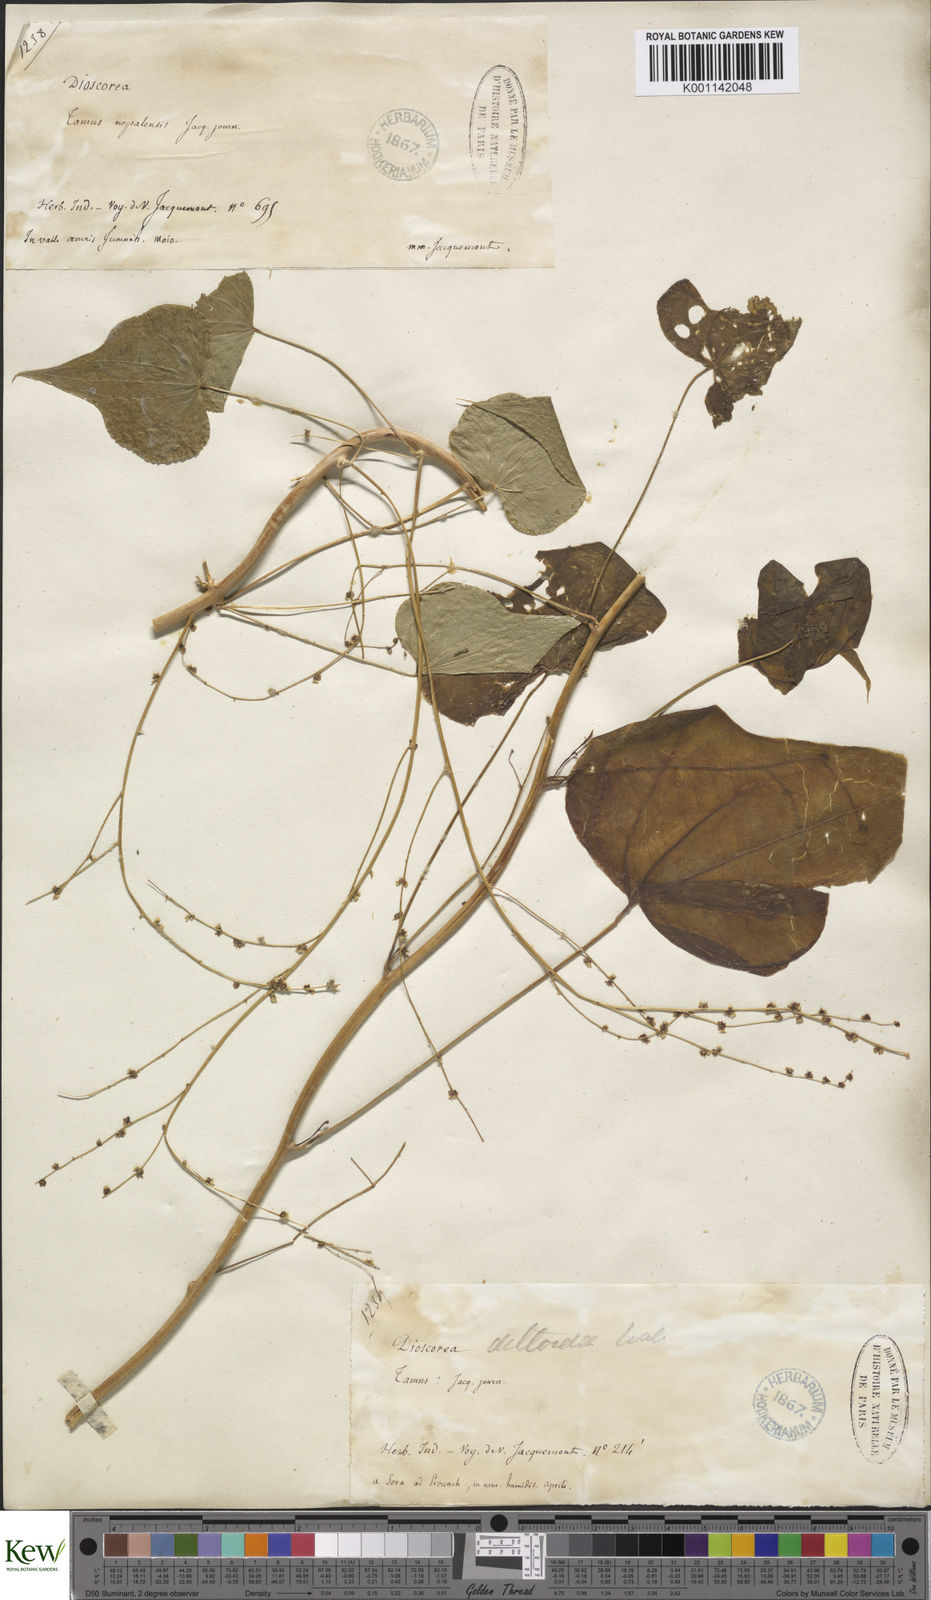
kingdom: Plantae
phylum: Tracheophyta
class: Liliopsida
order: Dioscoreales
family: Dioscoreaceae
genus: Dioscorea
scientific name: Dioscorea deltoidea
